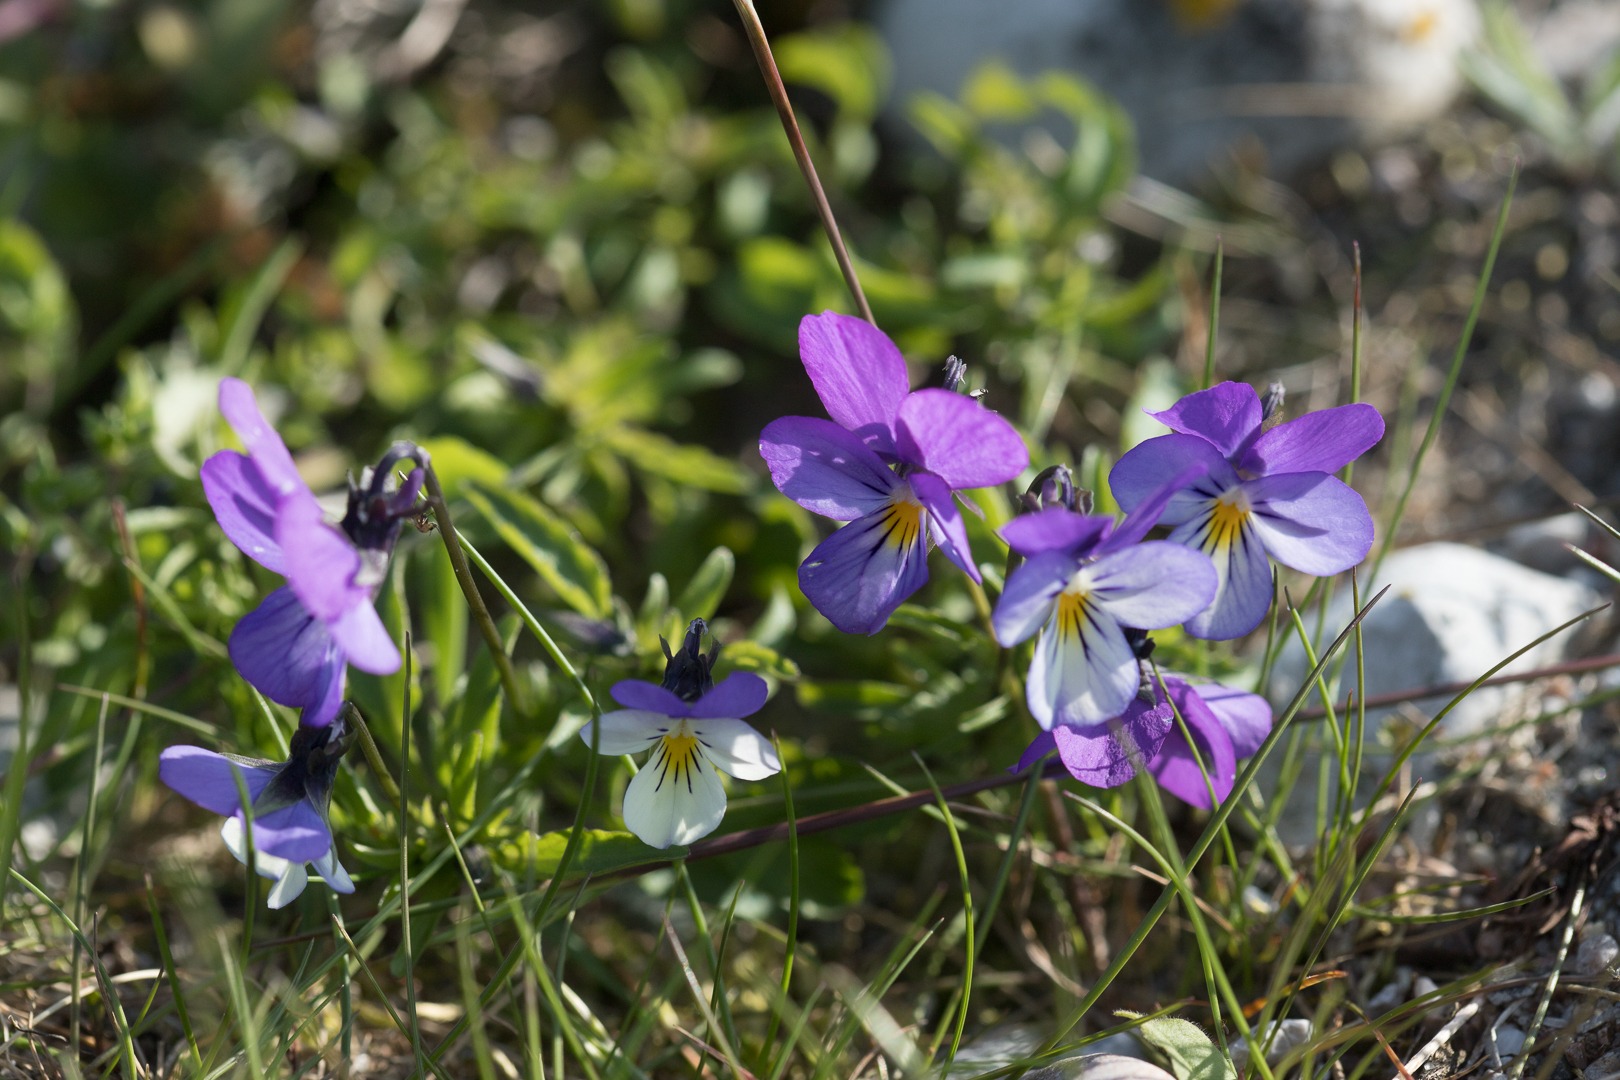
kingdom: Plantae
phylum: Tracheophyta
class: Magnoliopsida
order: Malpighiales
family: Violaceae
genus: Viola
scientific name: Viola tricolor
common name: Stedmoderblomst
